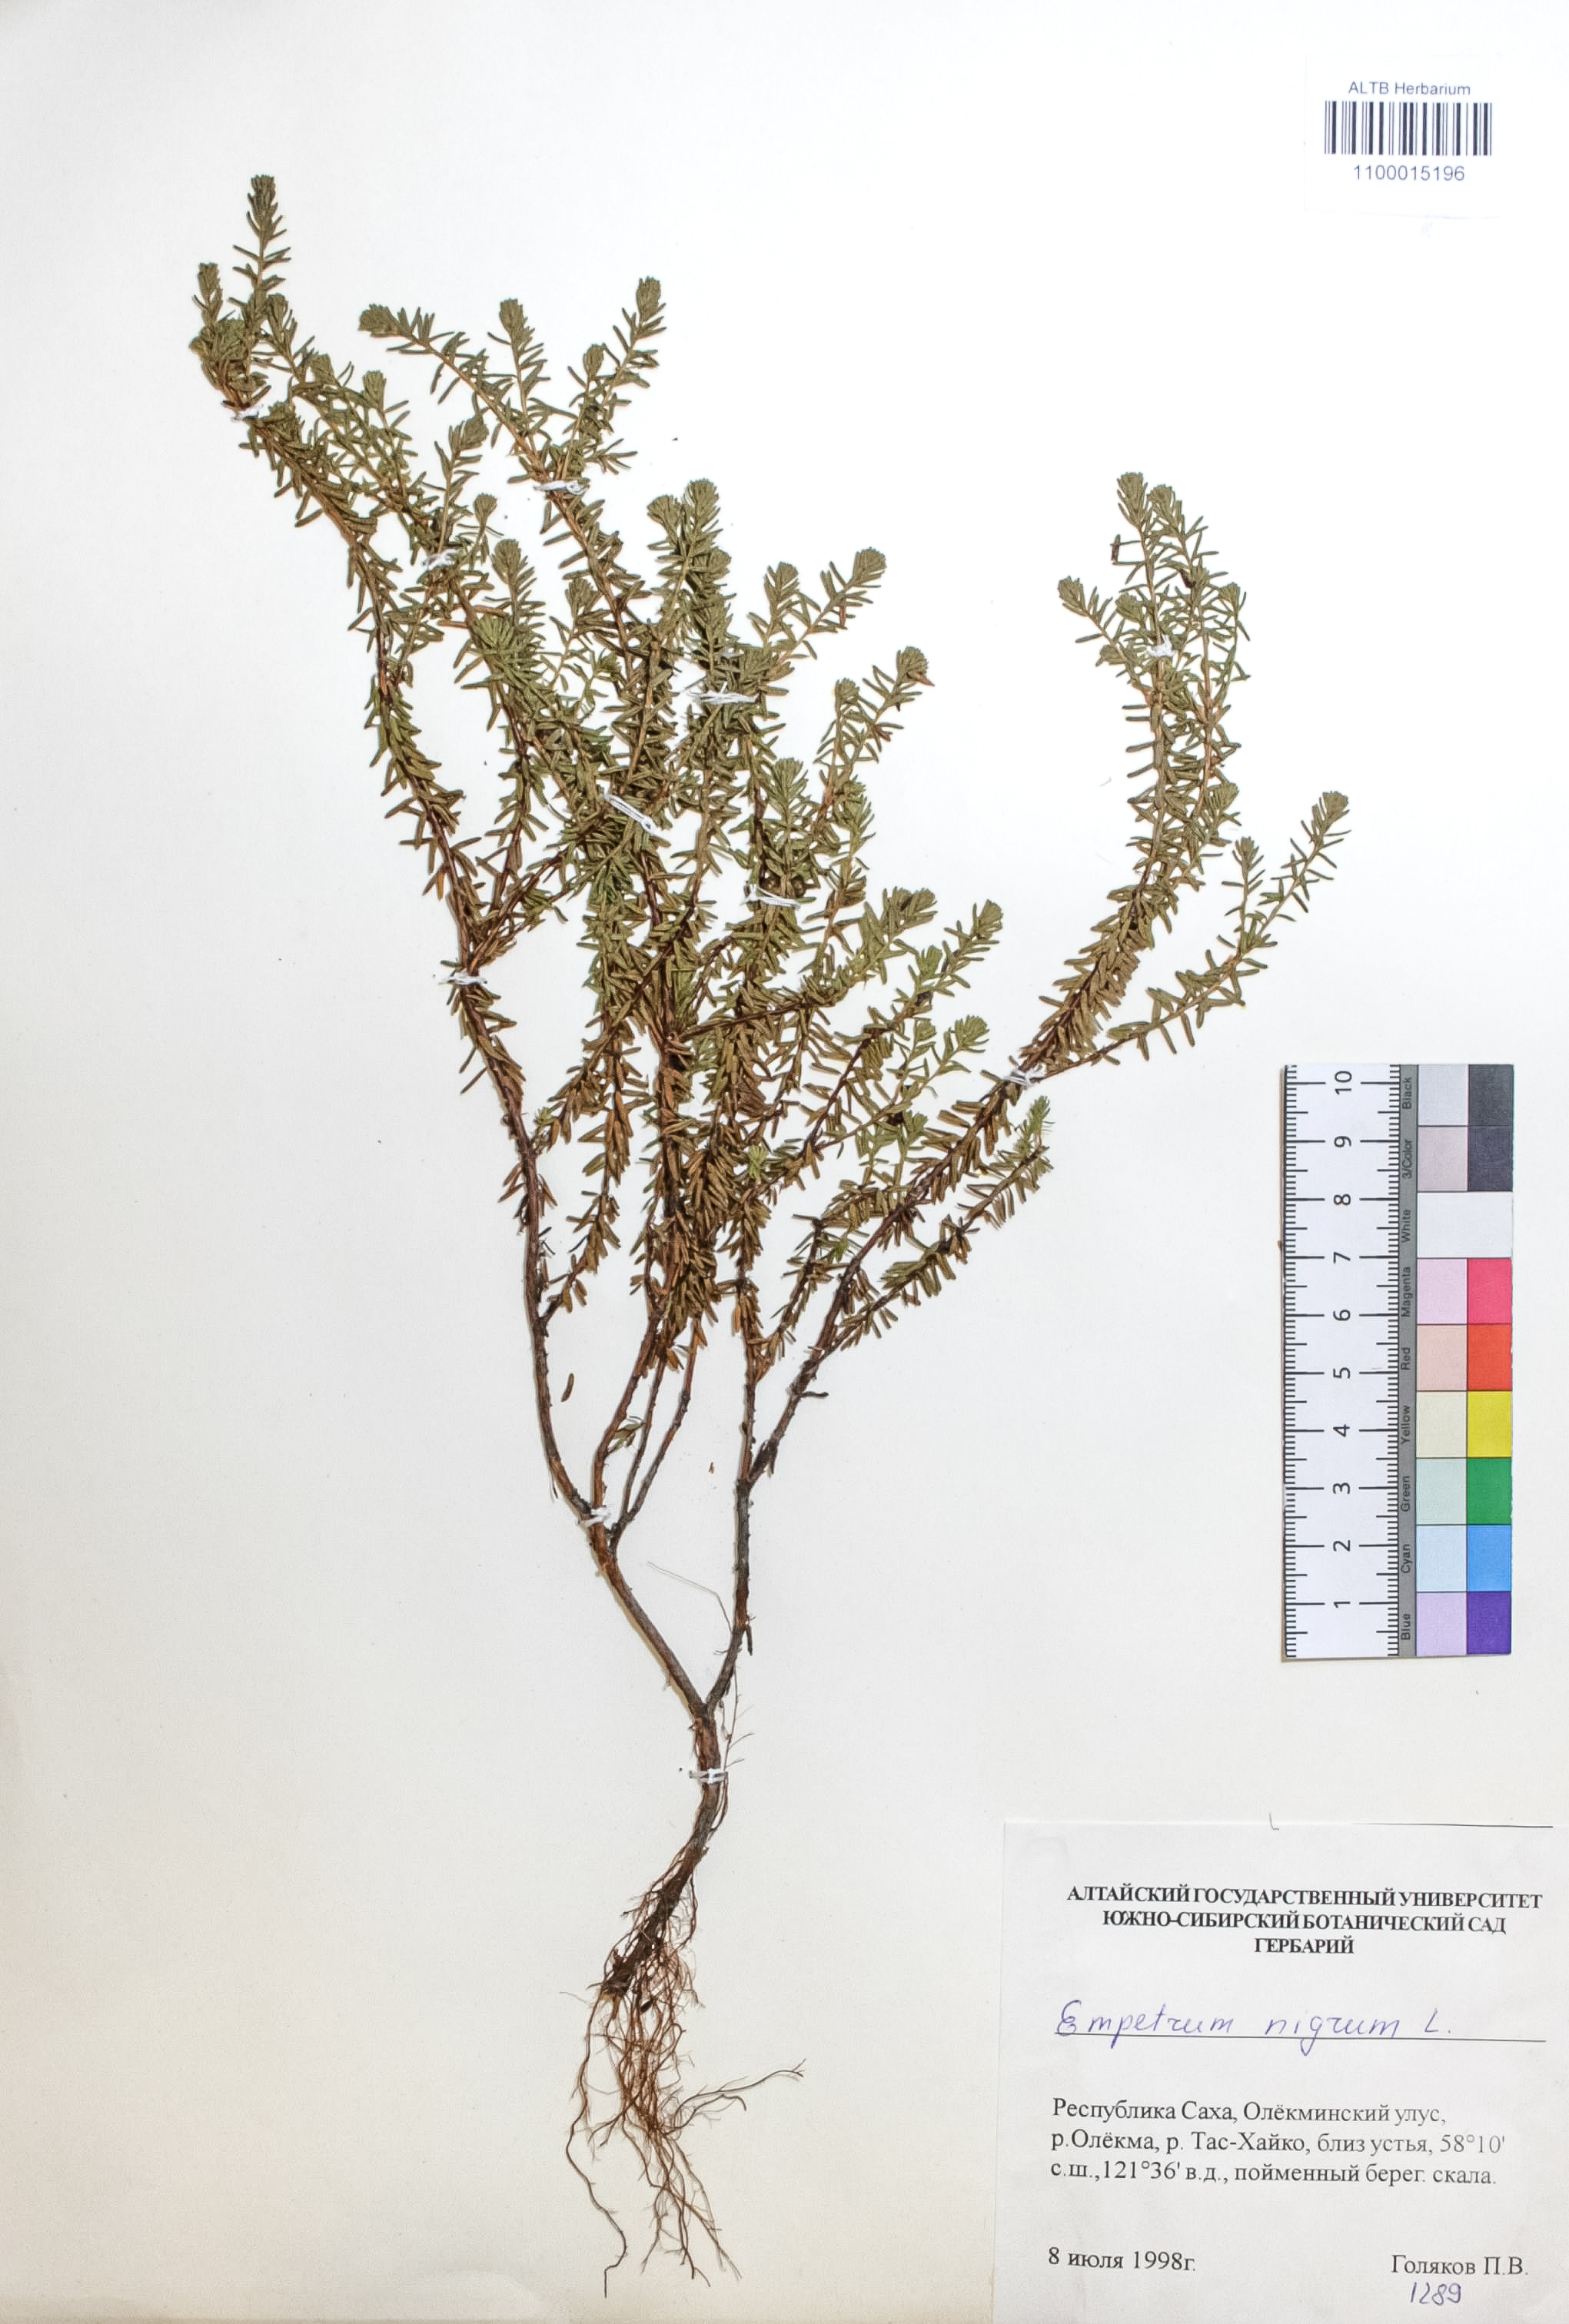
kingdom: Plantae
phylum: Tracheophyta
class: Magnoliopsida
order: Ericales
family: Ericaceae
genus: Empetrum
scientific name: Empetrum nigrum
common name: Black crowberry
